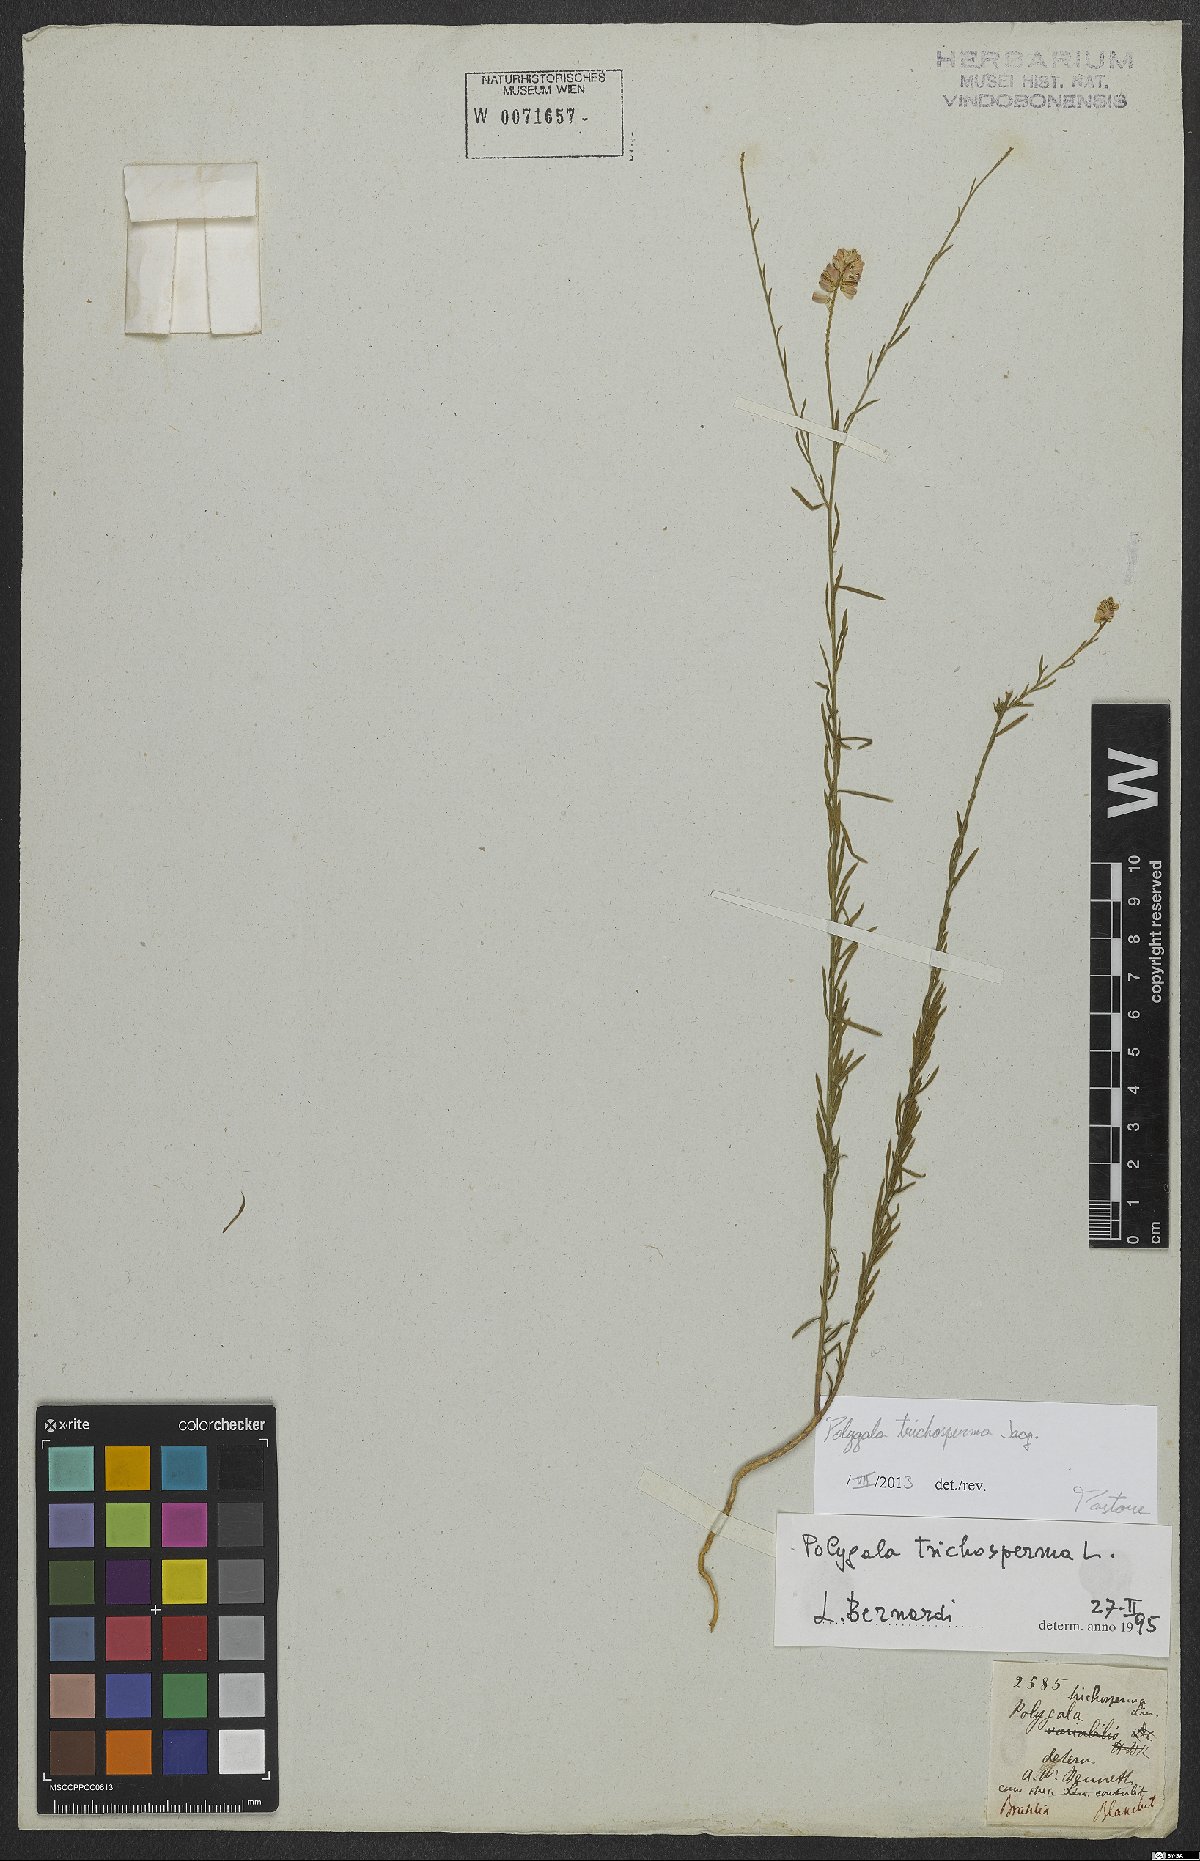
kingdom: Plantae
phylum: Tracheophyta
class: Magnoliopsida
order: Fabales
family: Polygalaceae
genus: Polygala
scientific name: Polygala trichosperma
